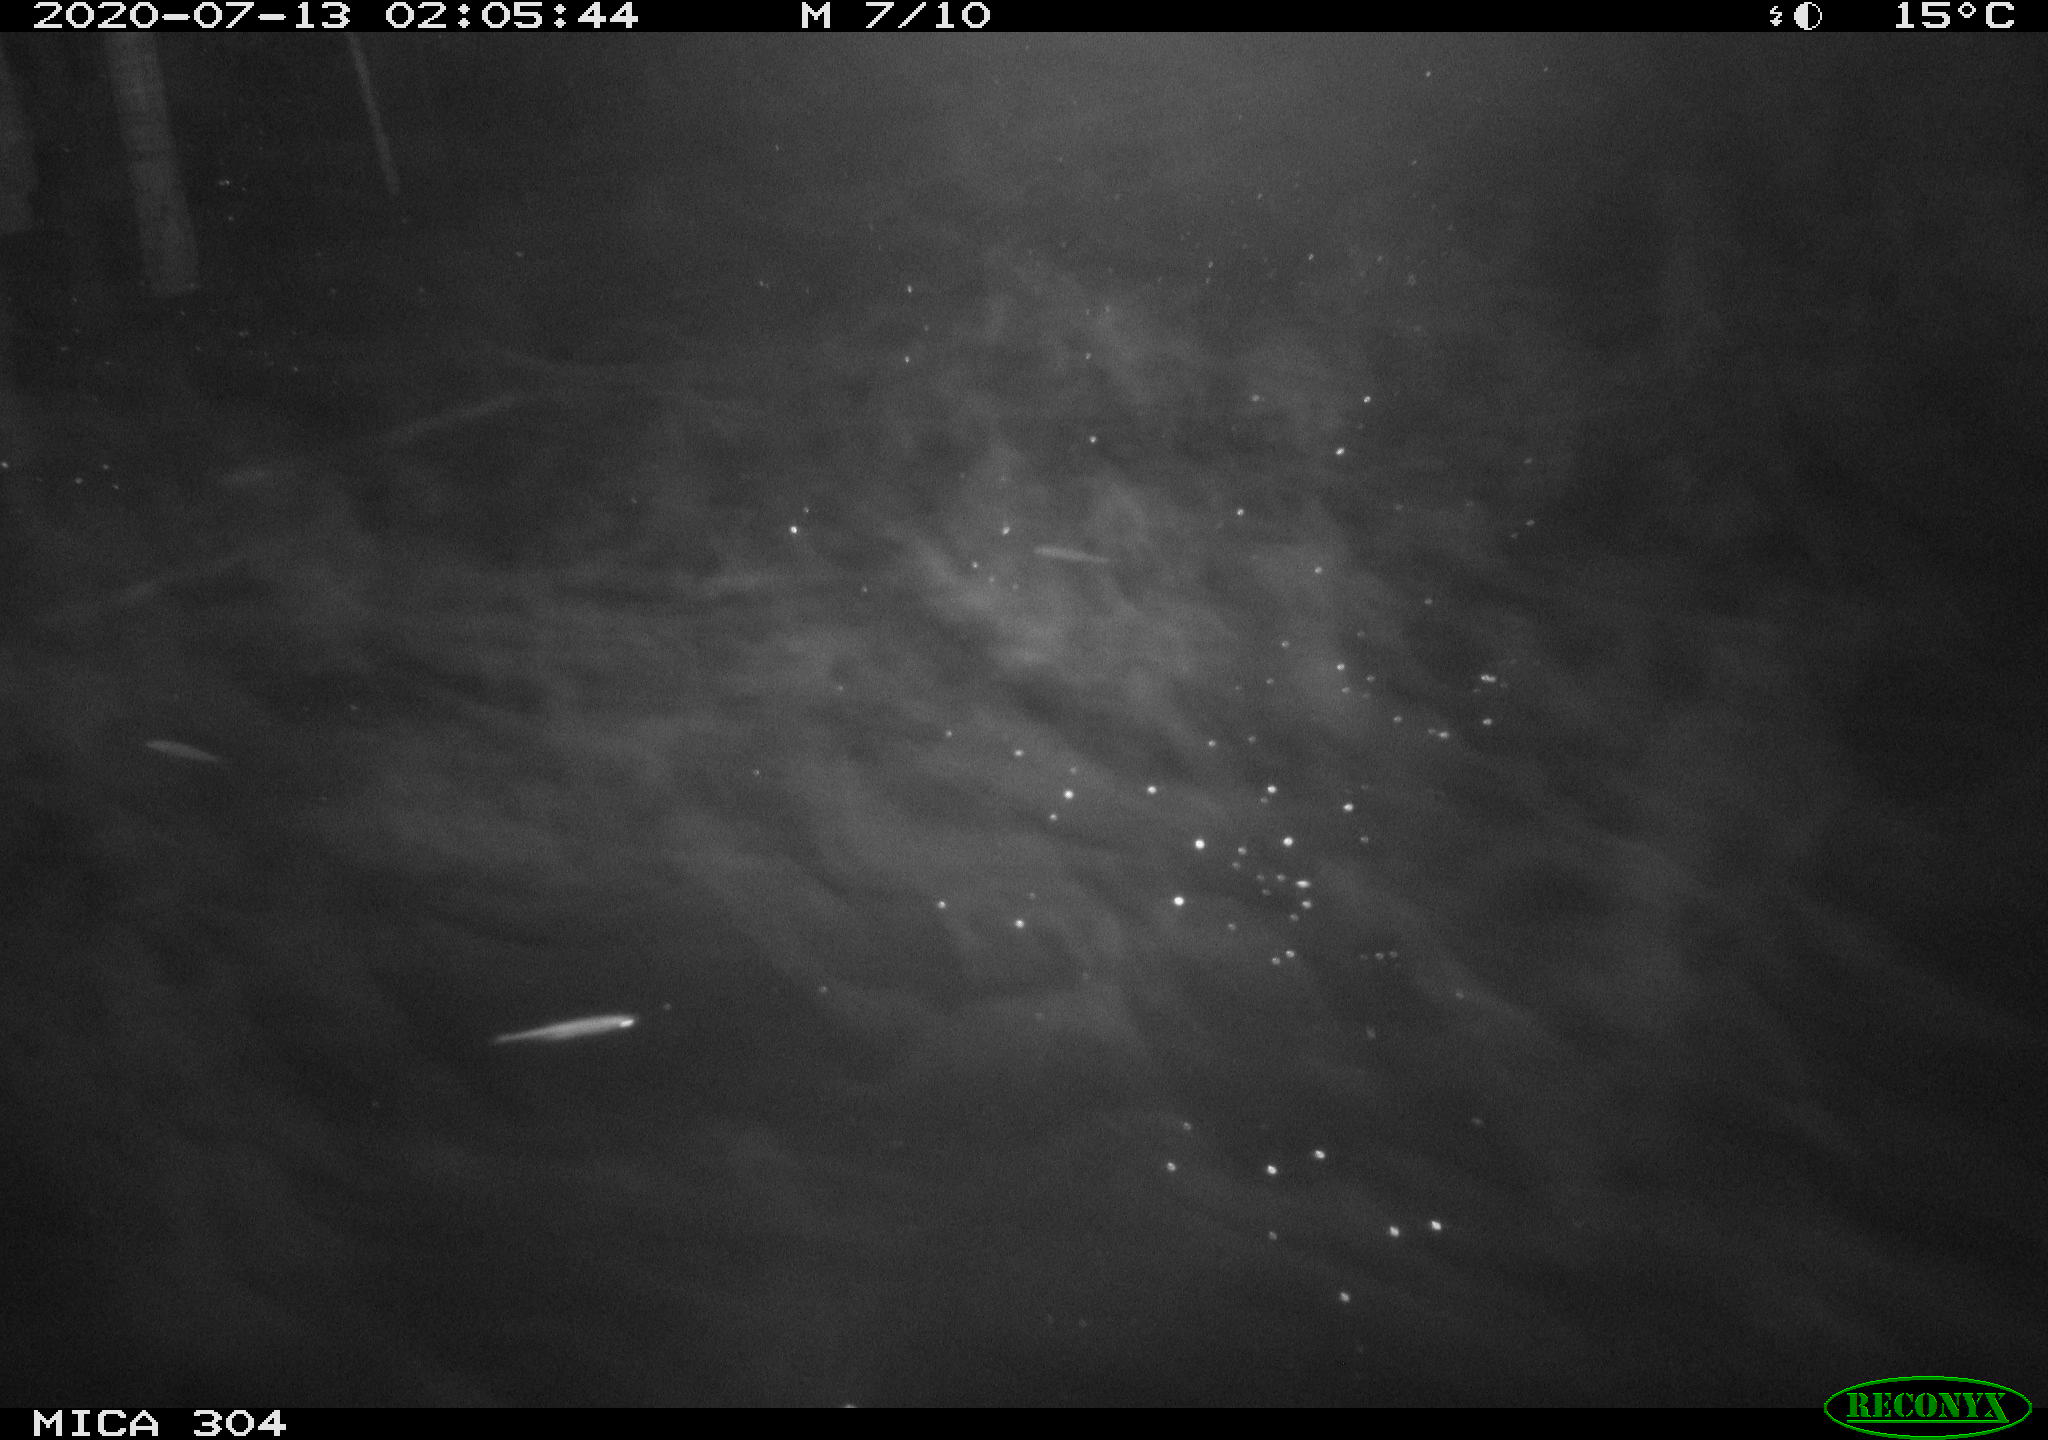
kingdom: Animalia
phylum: Chordata
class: Mammalia
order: Rodentia
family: Cricetidae
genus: Ondatra
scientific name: Ondatra zibethicus
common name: Muskrat
